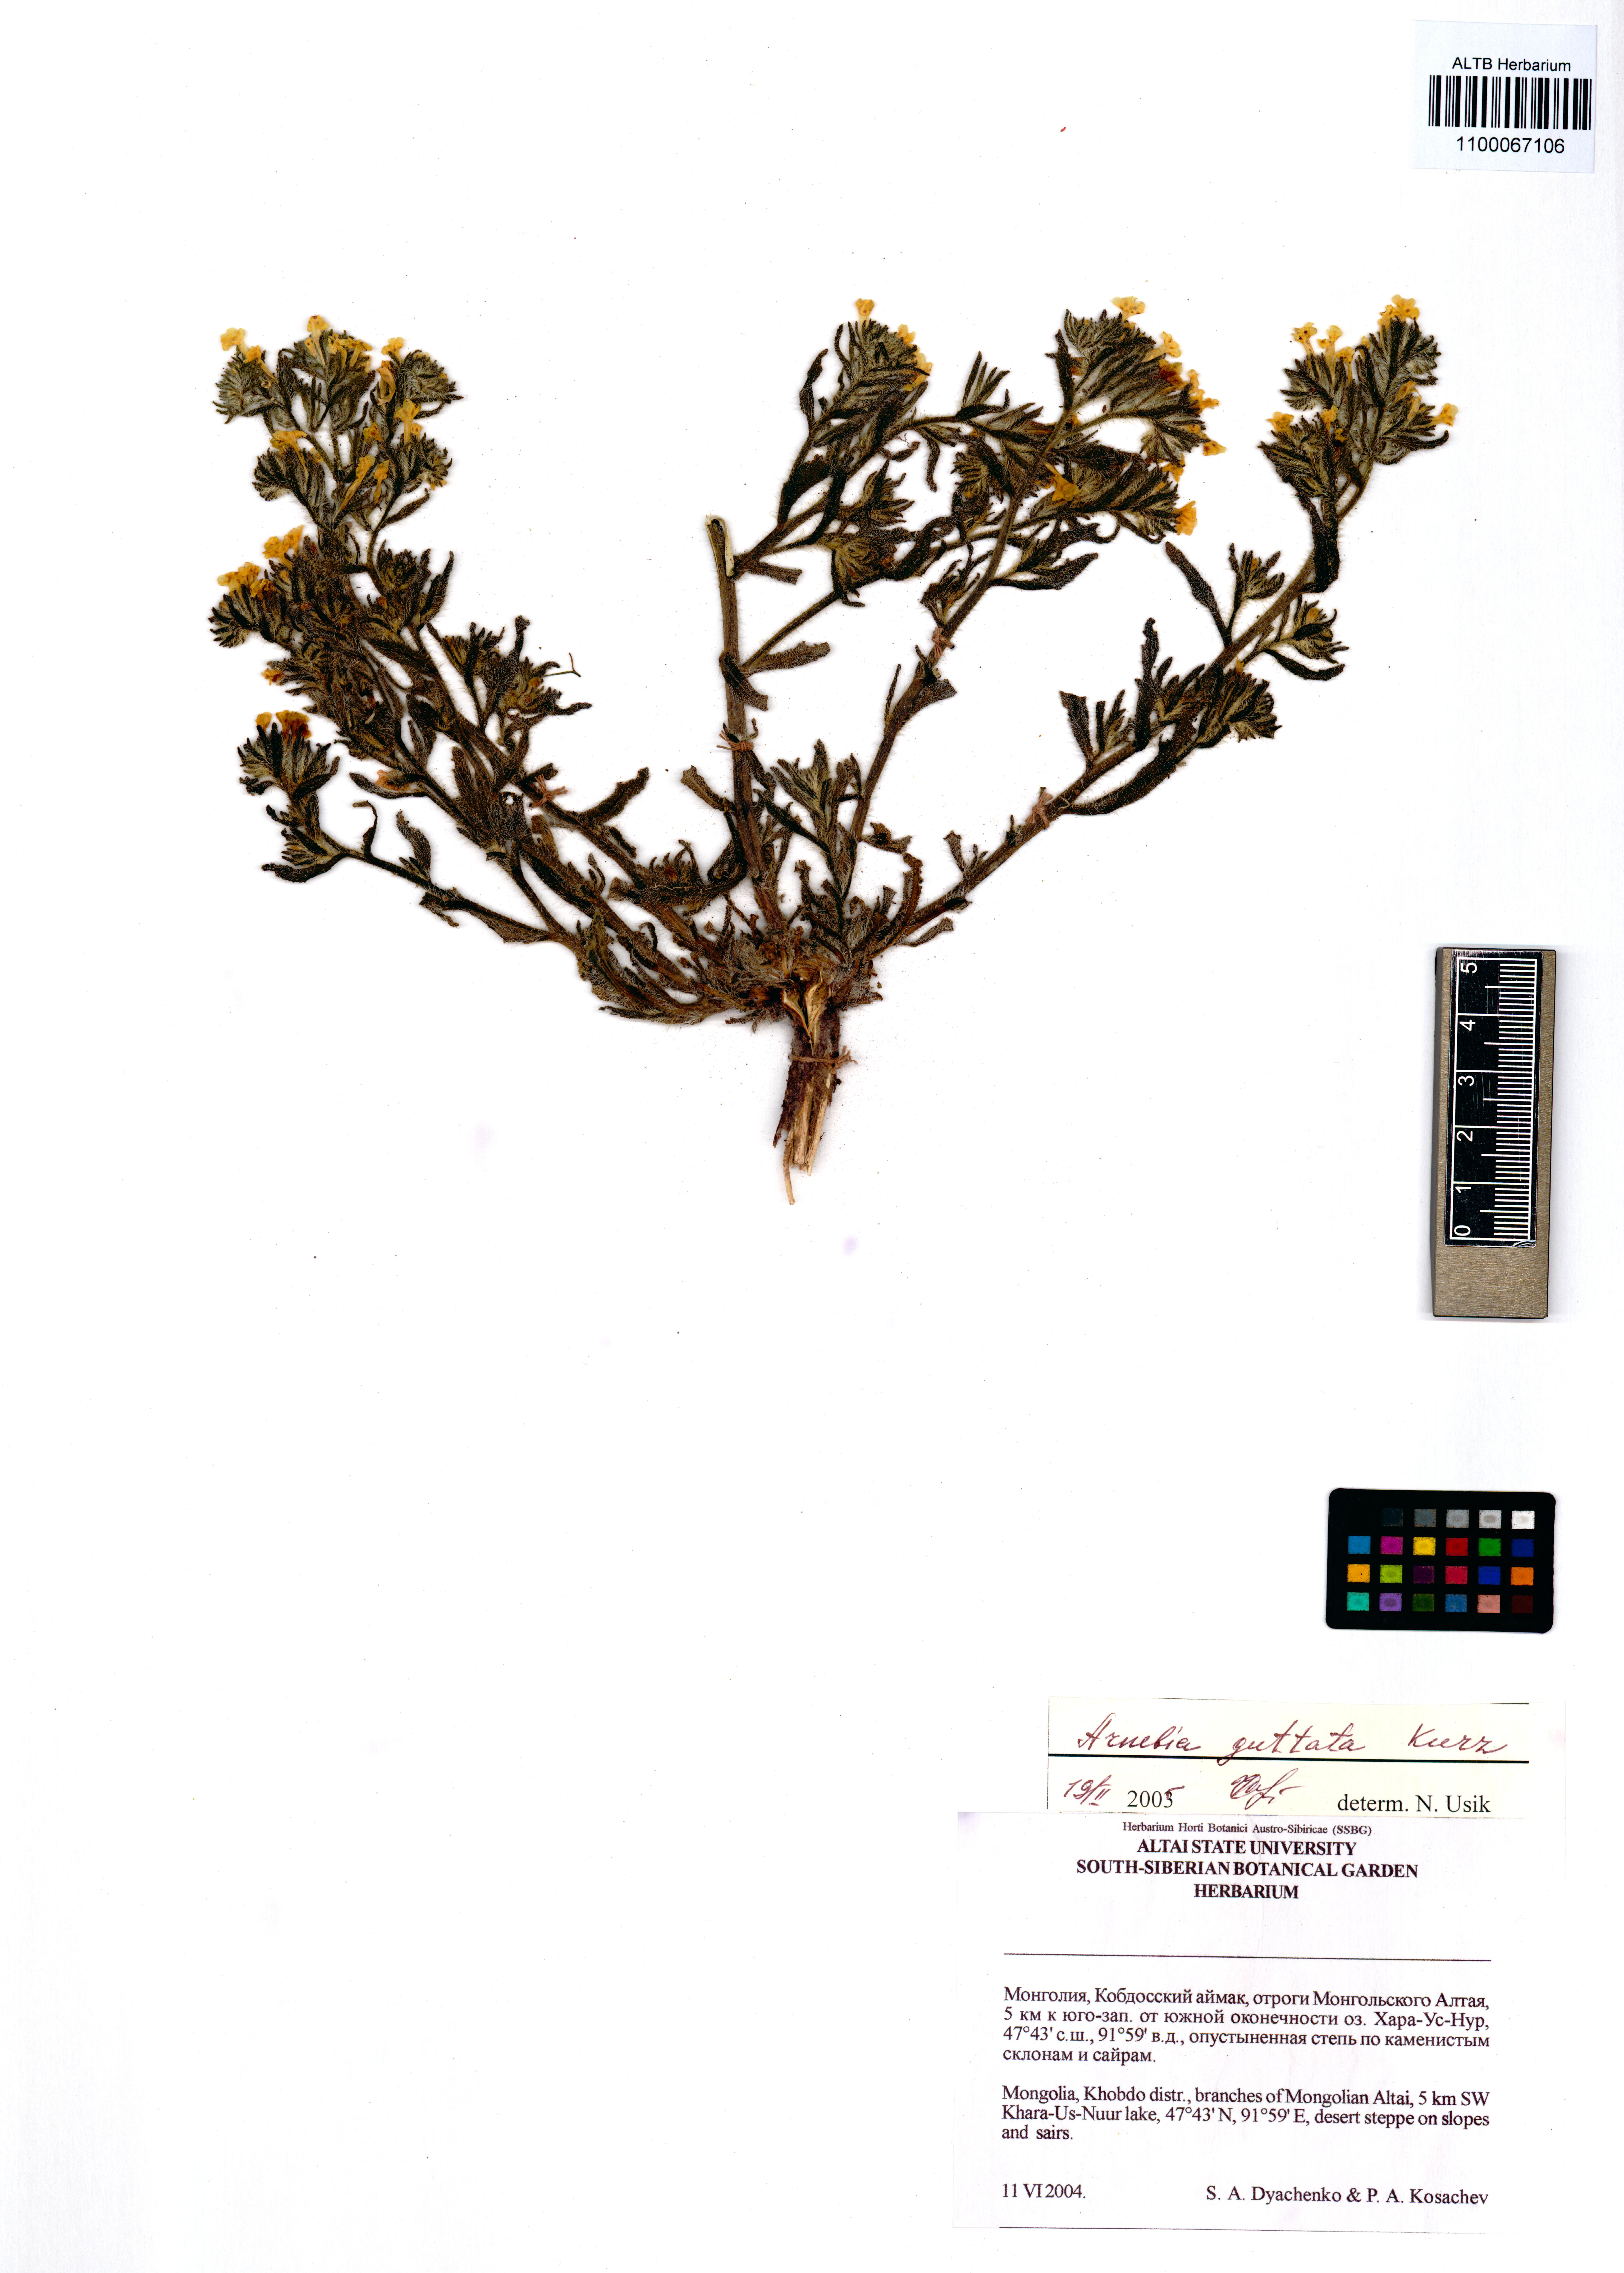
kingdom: Plantae
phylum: Tracheophyta
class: Magnoliopsida
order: Boraginales
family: Boraginaceae
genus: Arnebia
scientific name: Arnebia guttata
